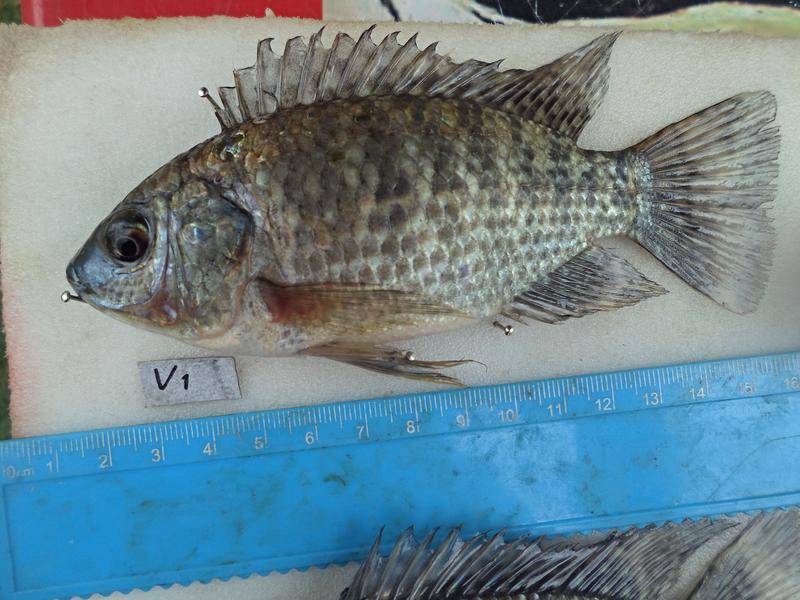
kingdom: Animalia
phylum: Chordata
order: Perciformes
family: Cichlidae
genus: Oreochromis
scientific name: Oreochromis leucostictus
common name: Blue spotted tilapia
